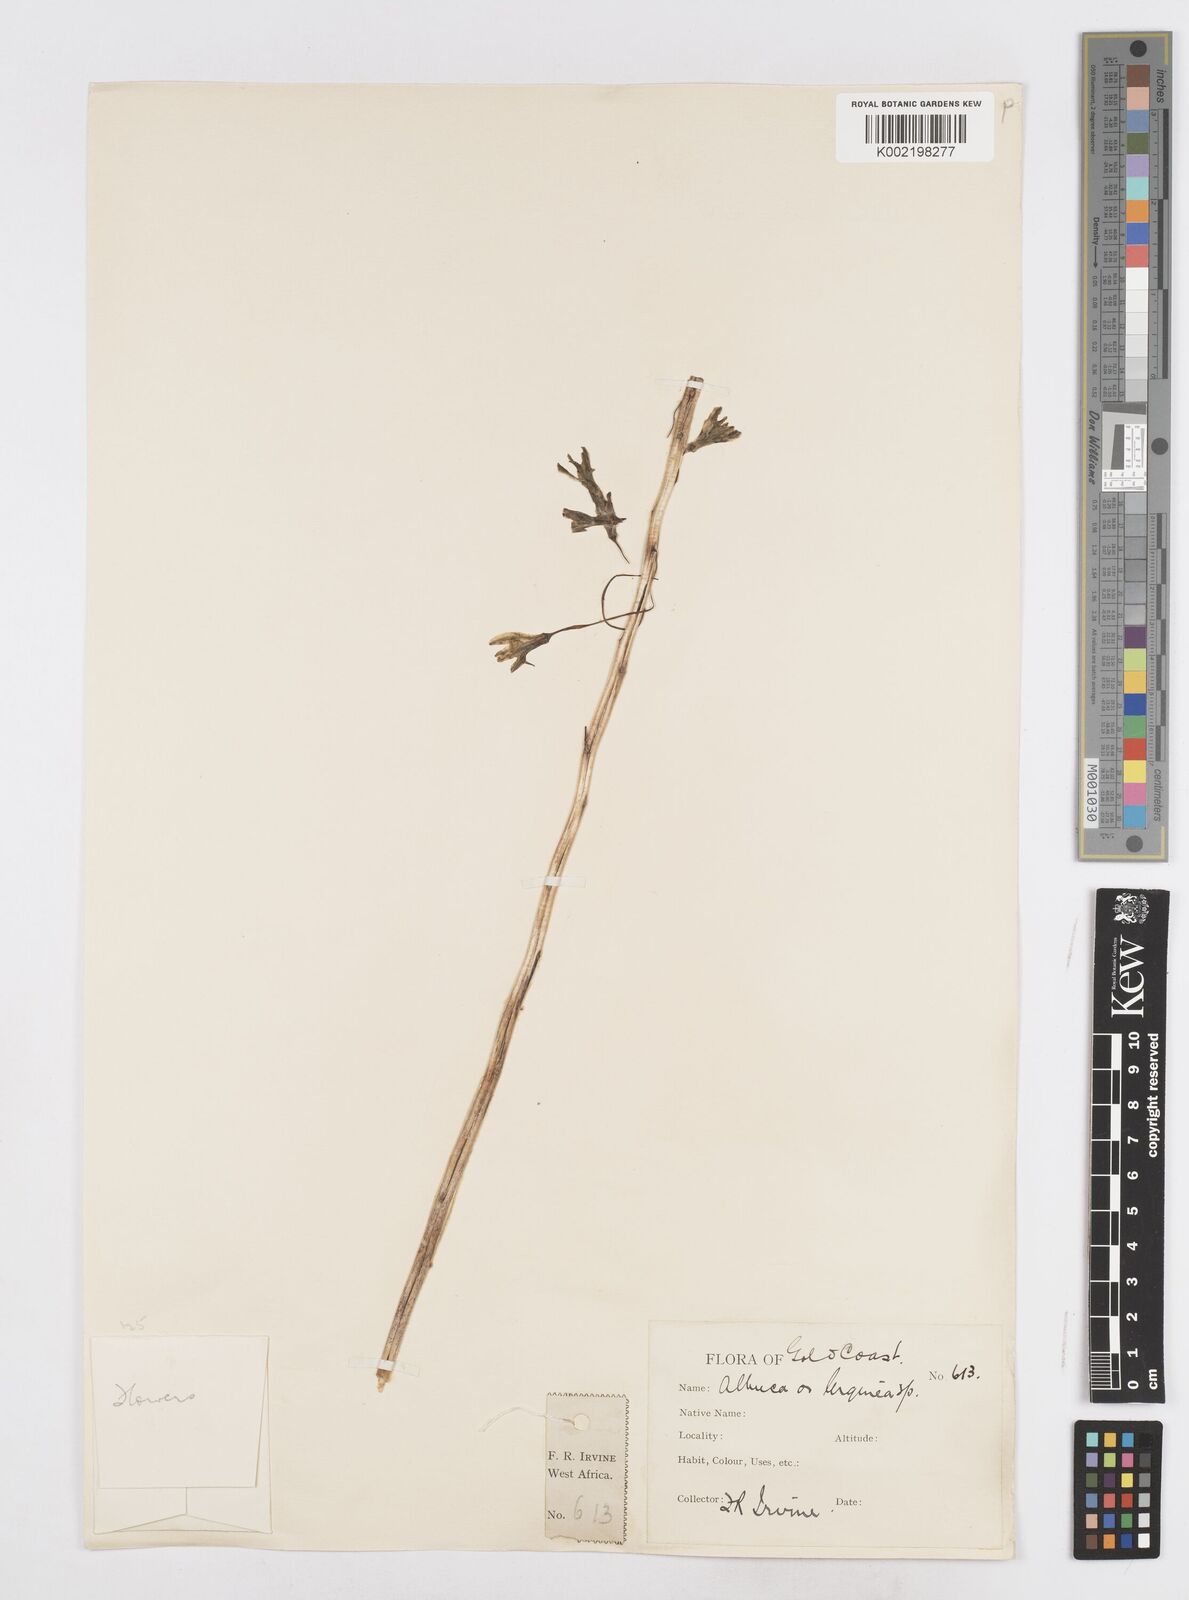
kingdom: Plantae
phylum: Tracheophyta
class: Liliopsida
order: Asparagales
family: Asparagaceae
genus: Drimia
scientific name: Drimia indica
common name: Indian-squill
